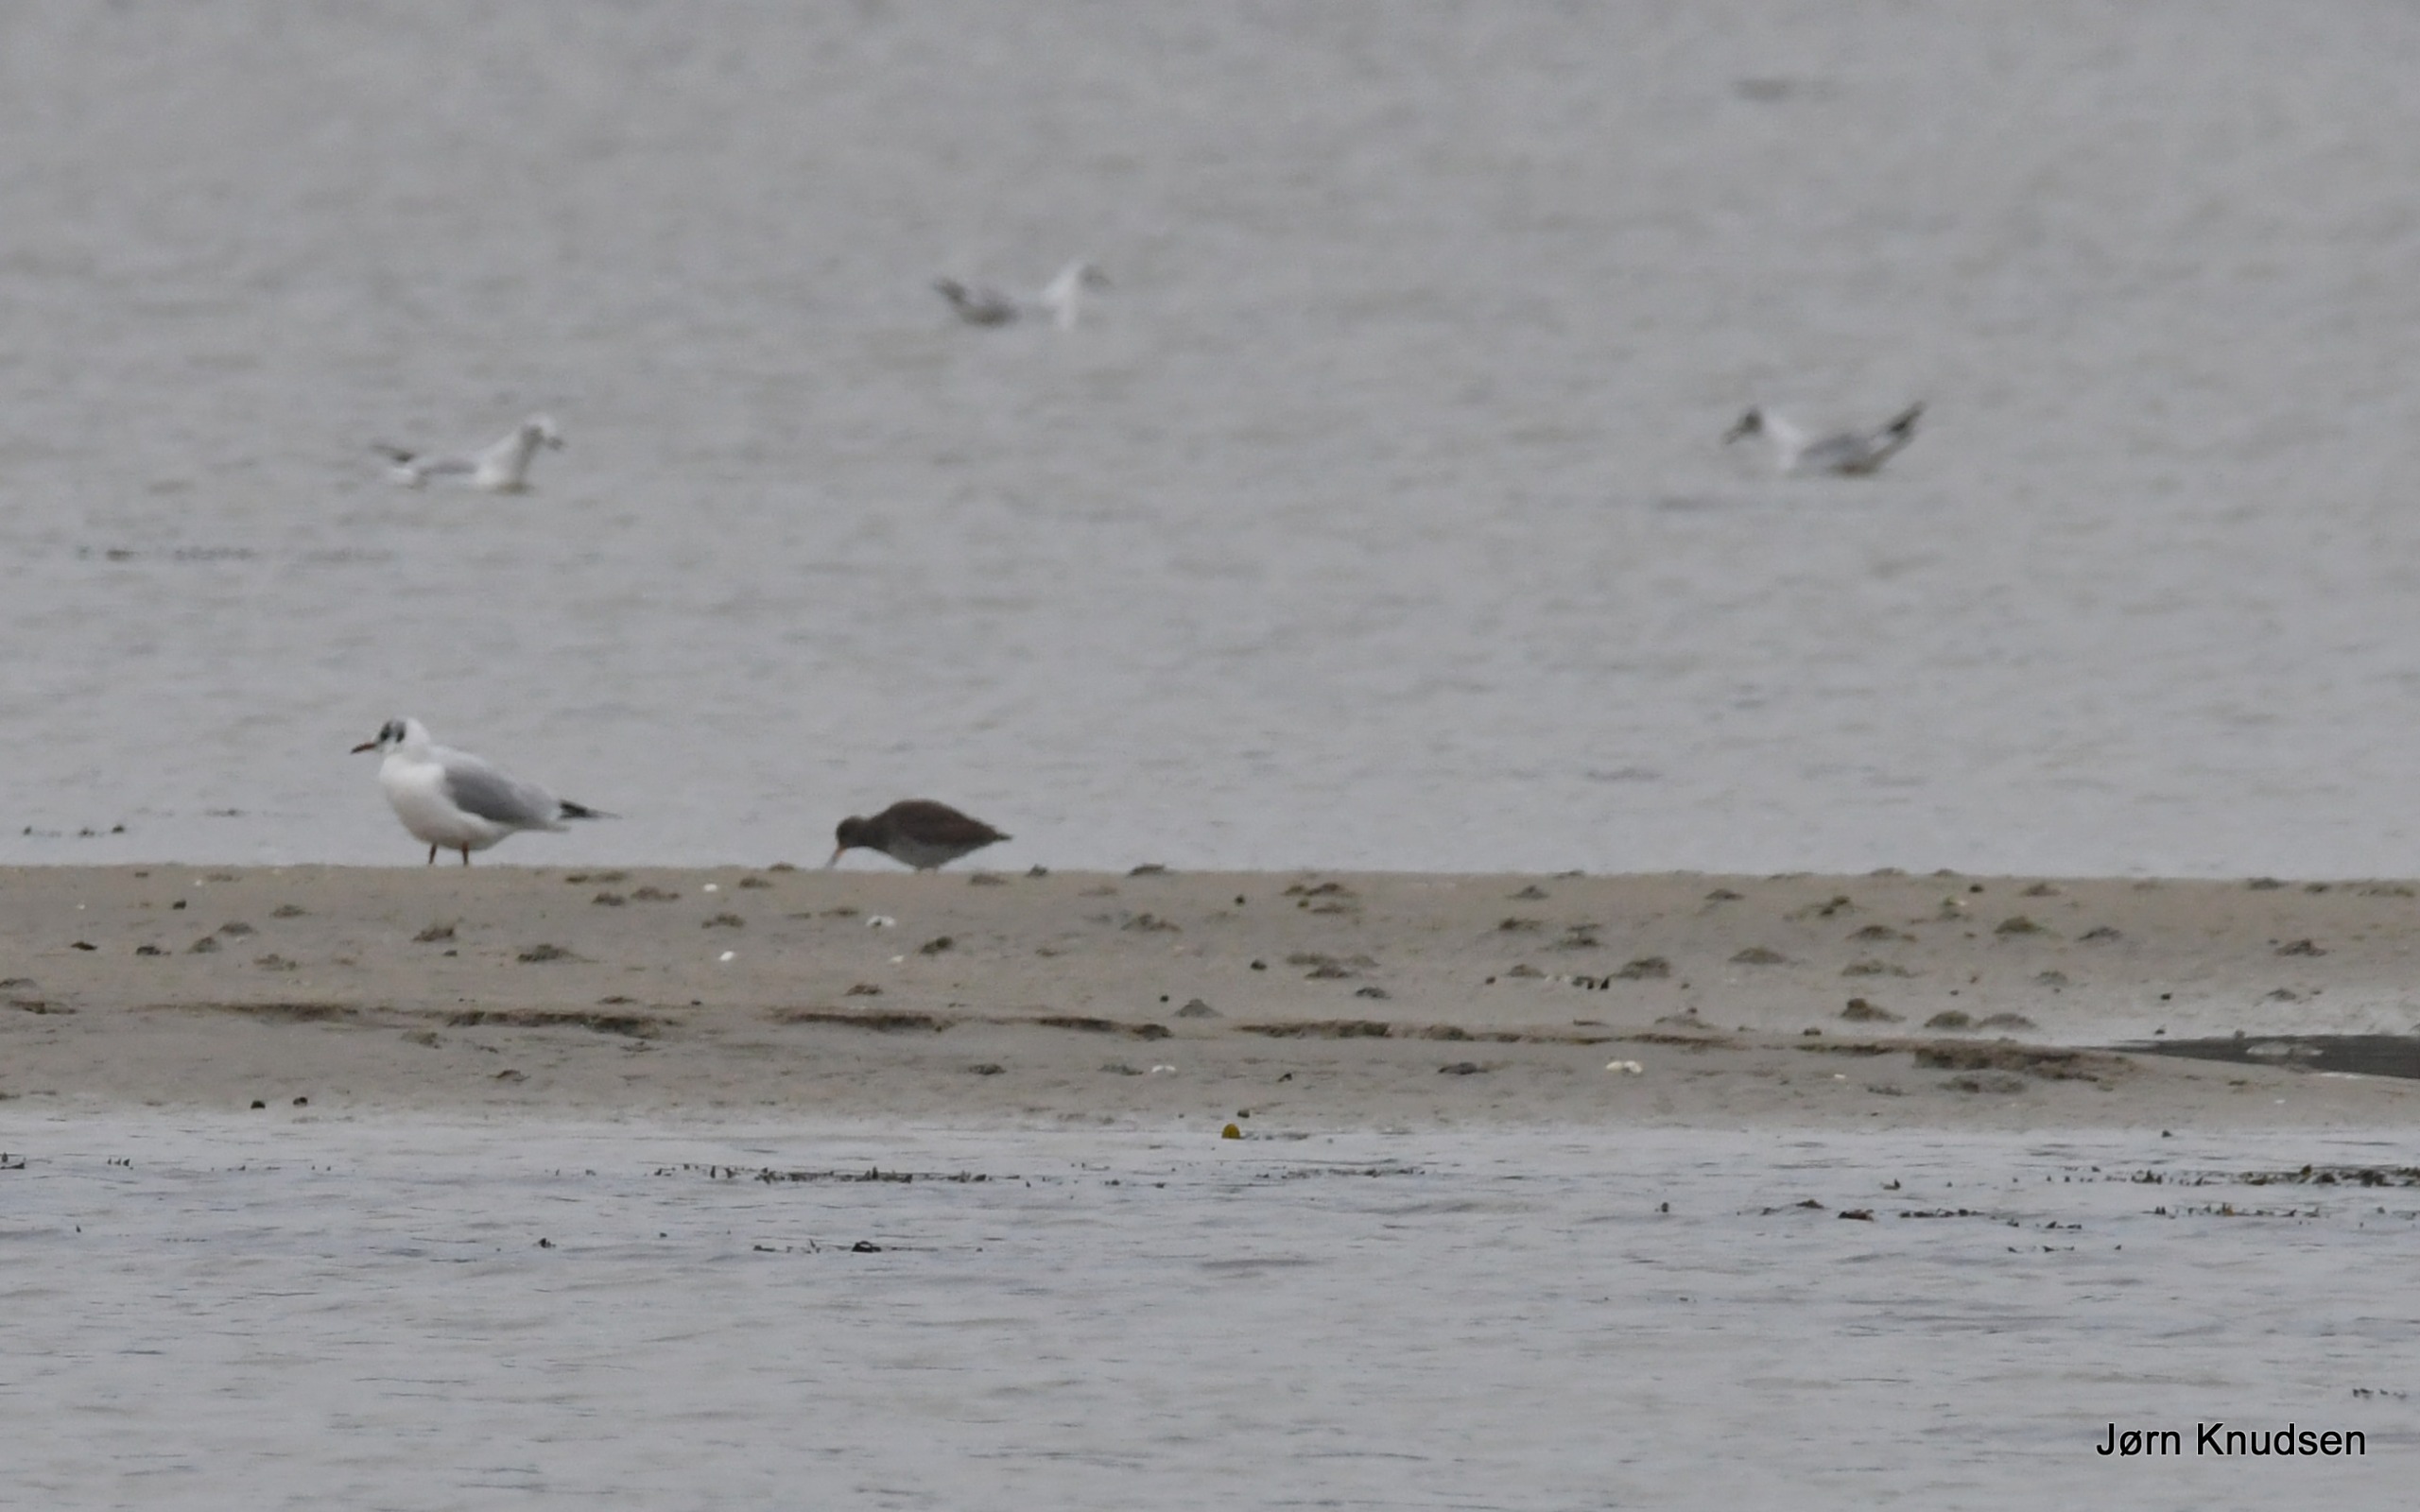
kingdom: Animalia
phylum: Chordata
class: Aves
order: Charadriiformes
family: Laridae
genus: Chroicocephalus
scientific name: Chroicocephalus ridibundus
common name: Hættemåge
